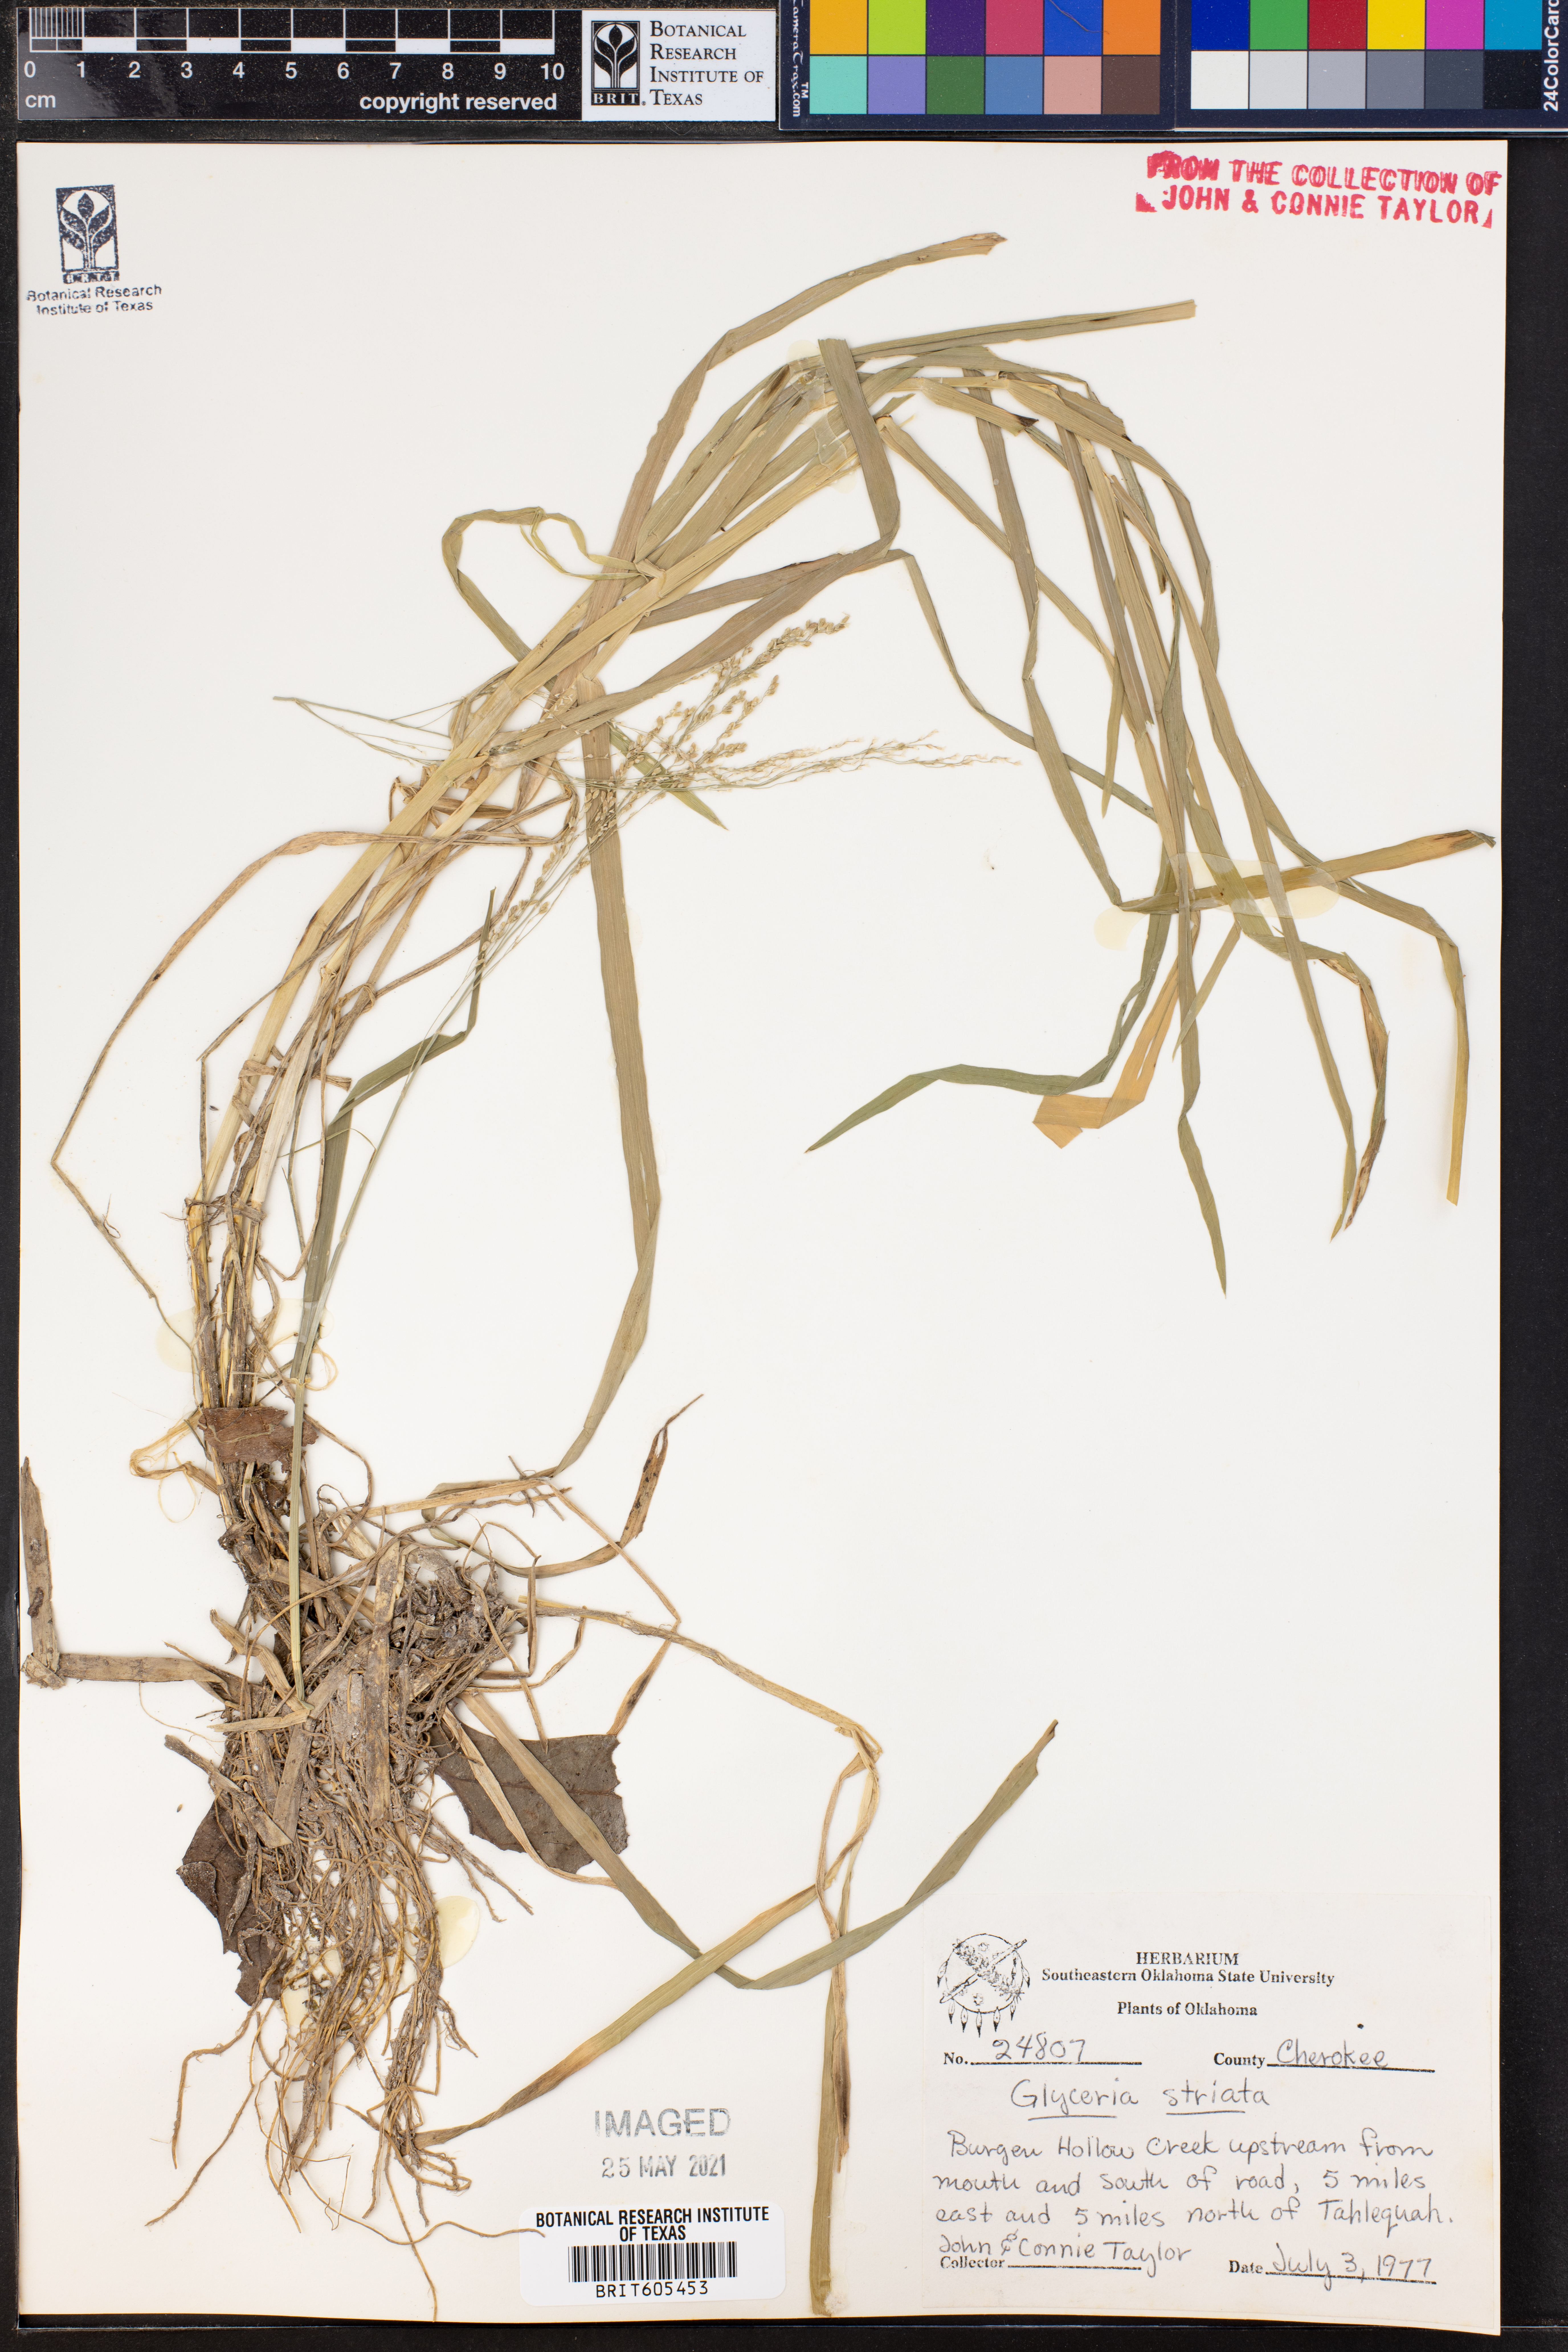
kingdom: Plantae
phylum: Tracheophyta
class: Liliopsida
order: Poales
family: Poaceae
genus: Glyceria
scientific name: Glyceria striata
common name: Fowl manna grass
